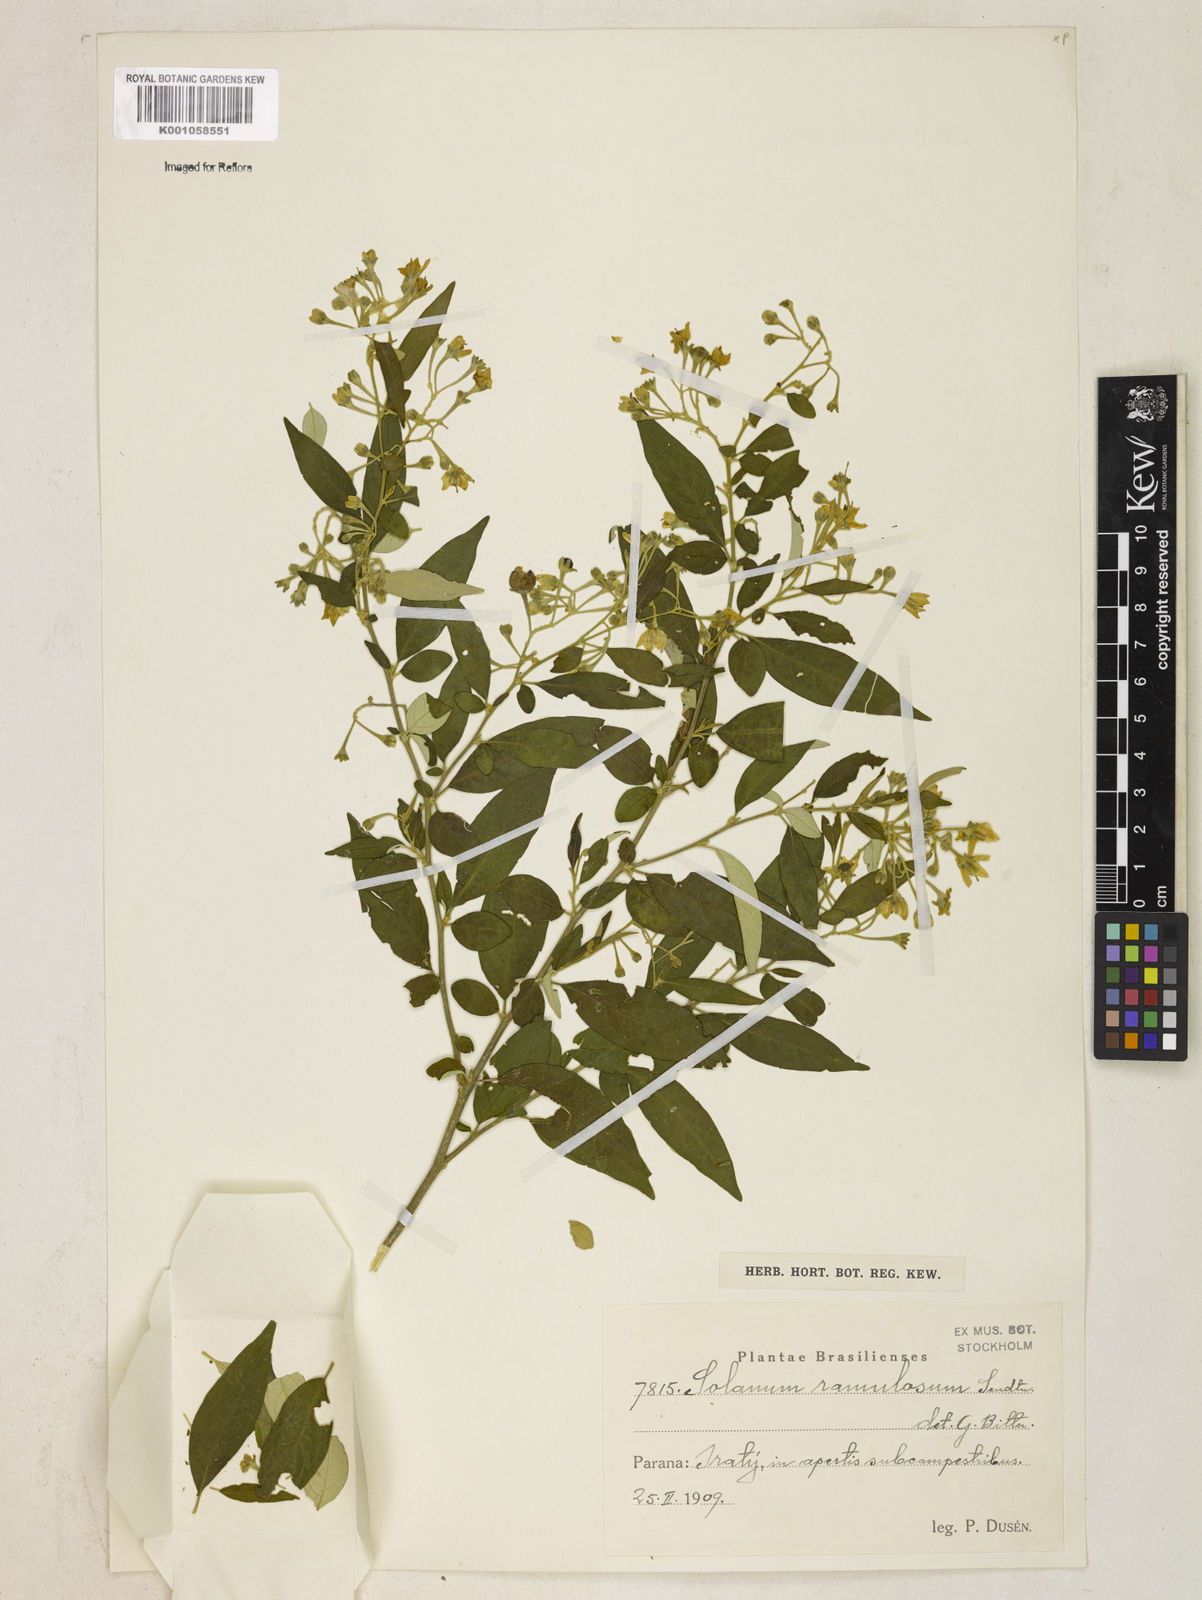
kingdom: Plantae
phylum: Tracheophyta
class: Magnoliopsida
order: Solanales
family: Solanaceae
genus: Solanum
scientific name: Solanum ramulosum
